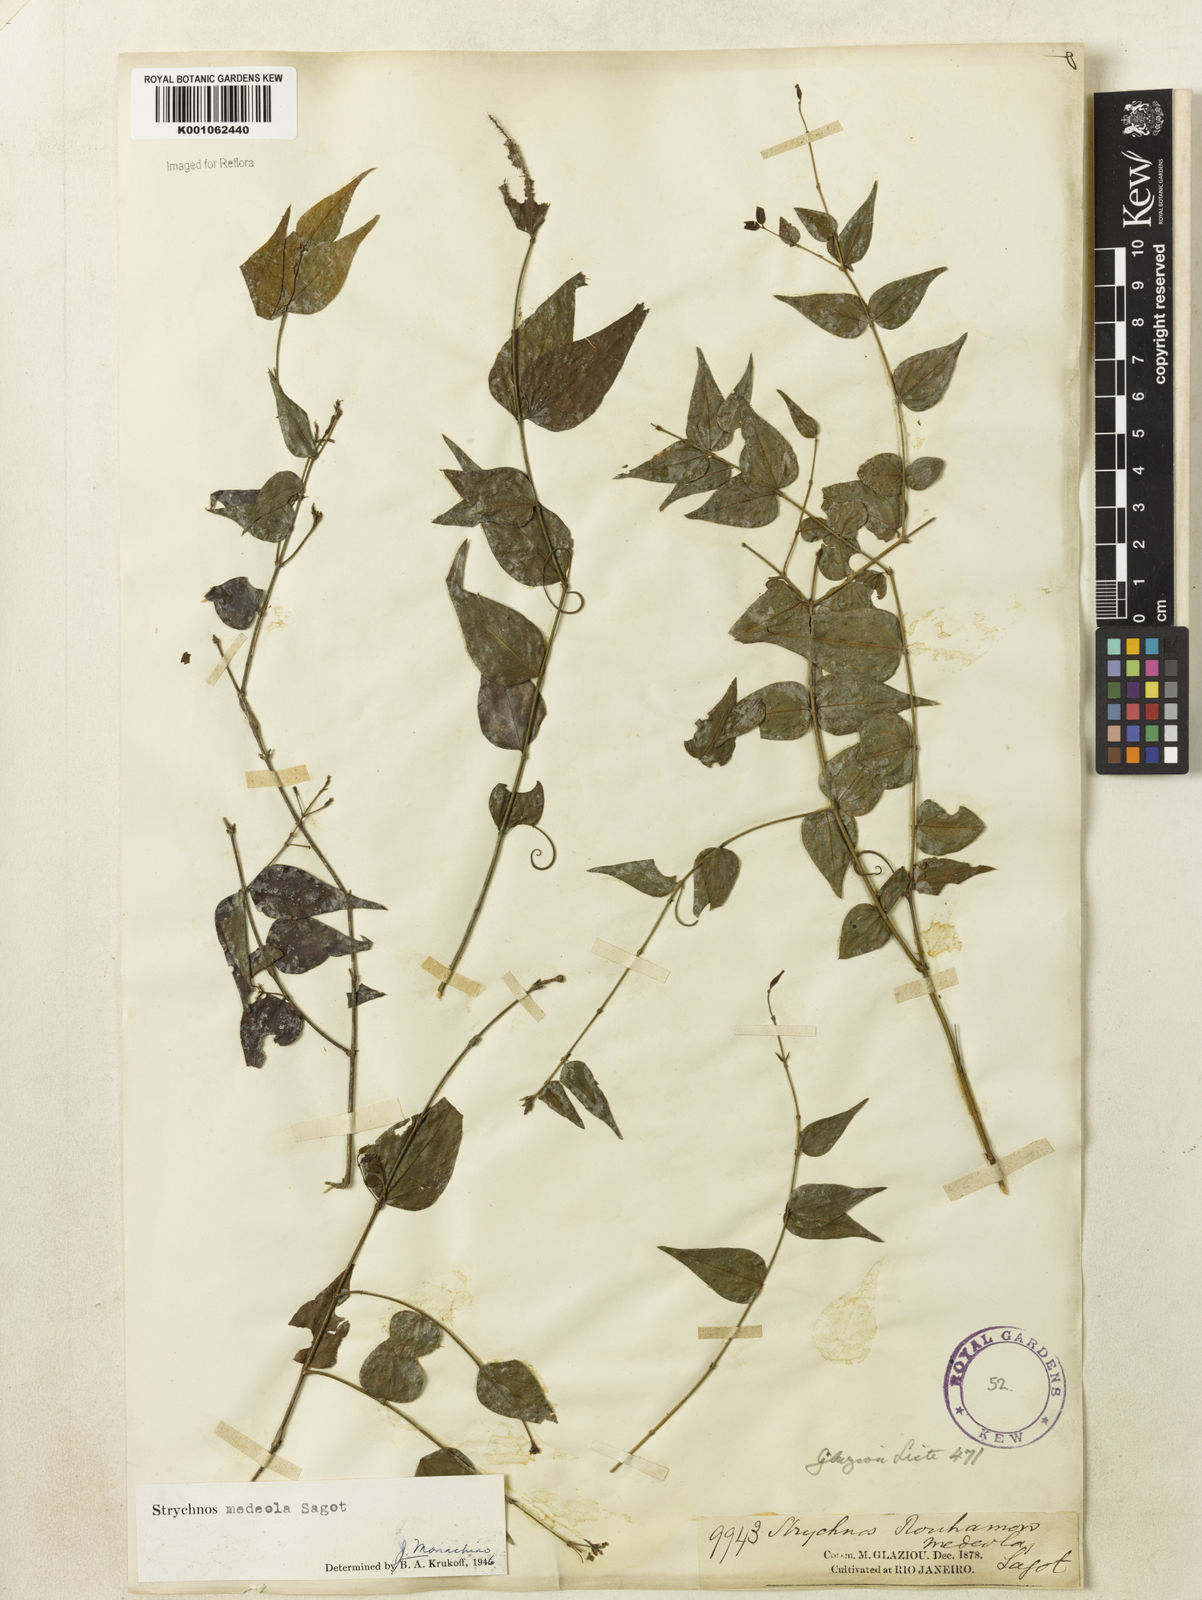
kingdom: Plantae
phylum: Tracheophyta
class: Magnoliopsida
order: Gentianales
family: Loganiaceae
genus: Strychnos
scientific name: Strychnos medeola
